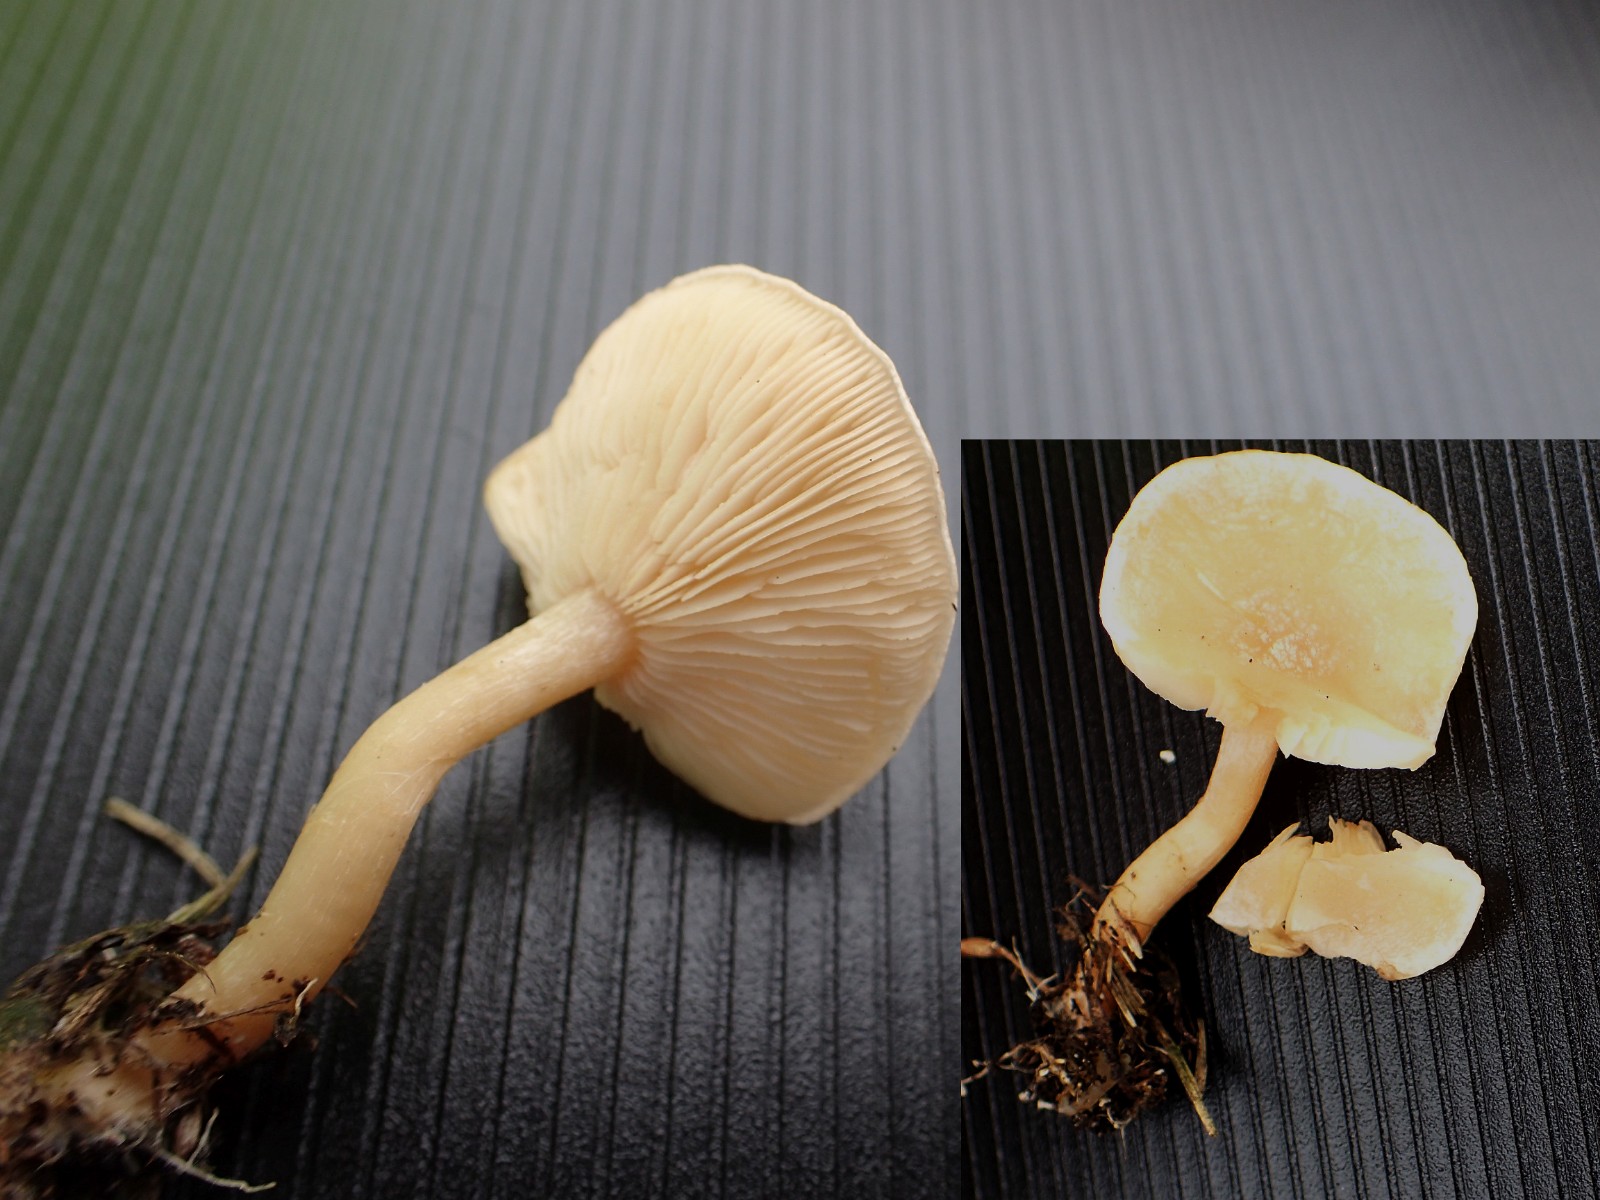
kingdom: Fungi
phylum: Basidiomycota
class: Agaricomycetes
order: Agaricales
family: Tricholomataceae
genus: Clitocybe
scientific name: Clitocybe
